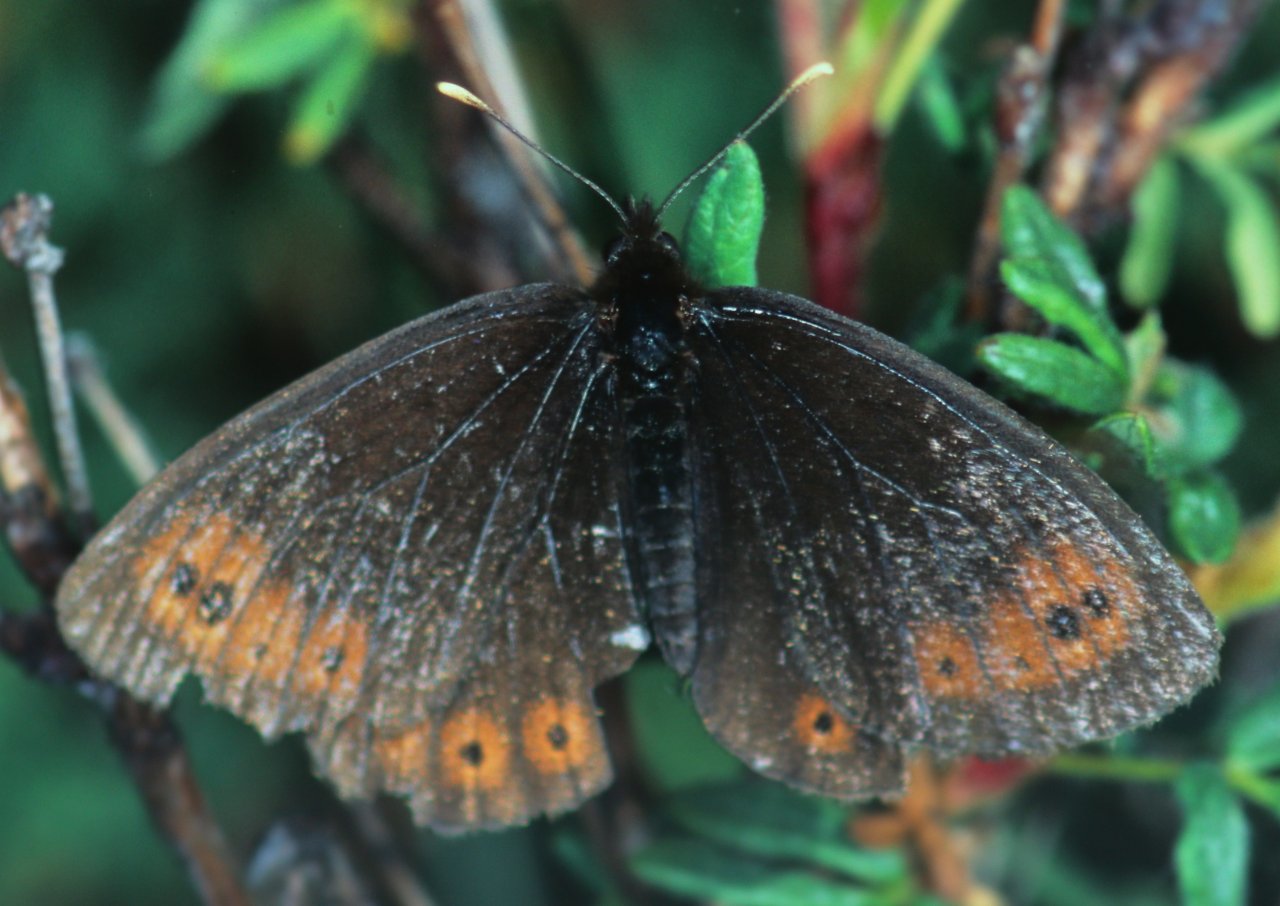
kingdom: Animalia
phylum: Arthropoda
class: Insecta
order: Lepidoptera
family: Nymphalidae
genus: Erebia
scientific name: Erebia epipsodea
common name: Common Alpine
